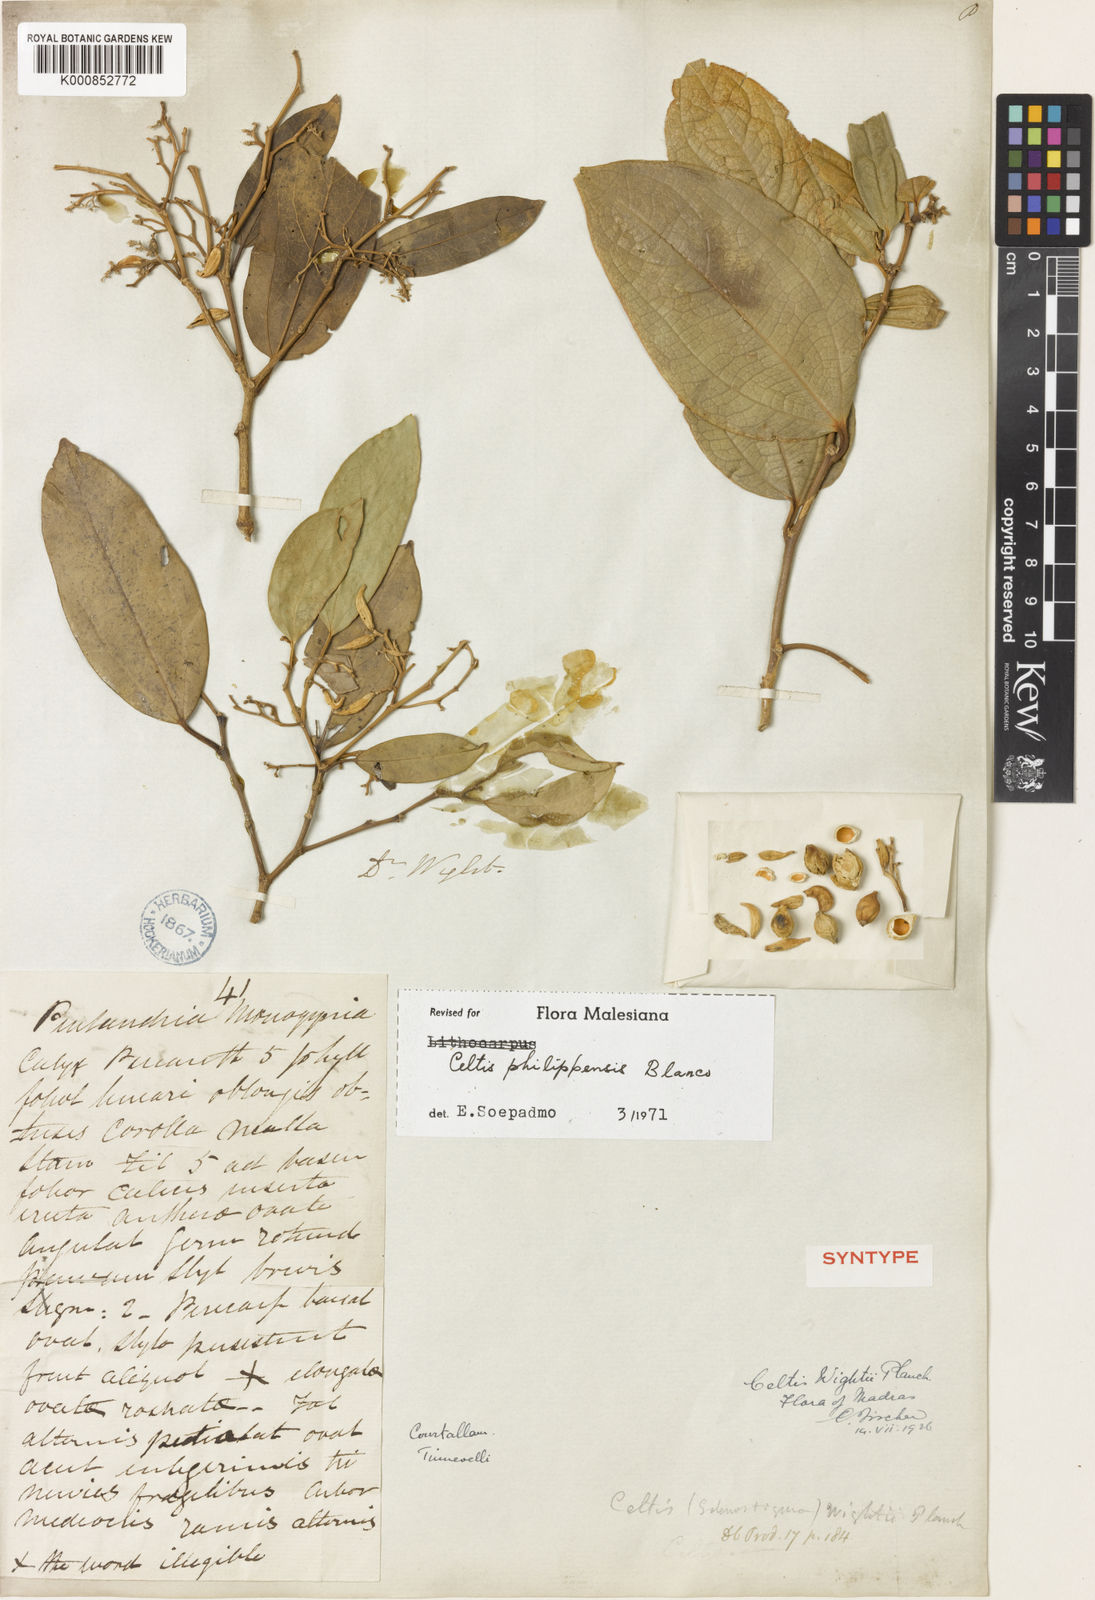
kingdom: Plantae
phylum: Tracheophyta
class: Magnoliopsida
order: Rosales
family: Cannabaceae
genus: Celtis
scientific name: Celtis philippensis
